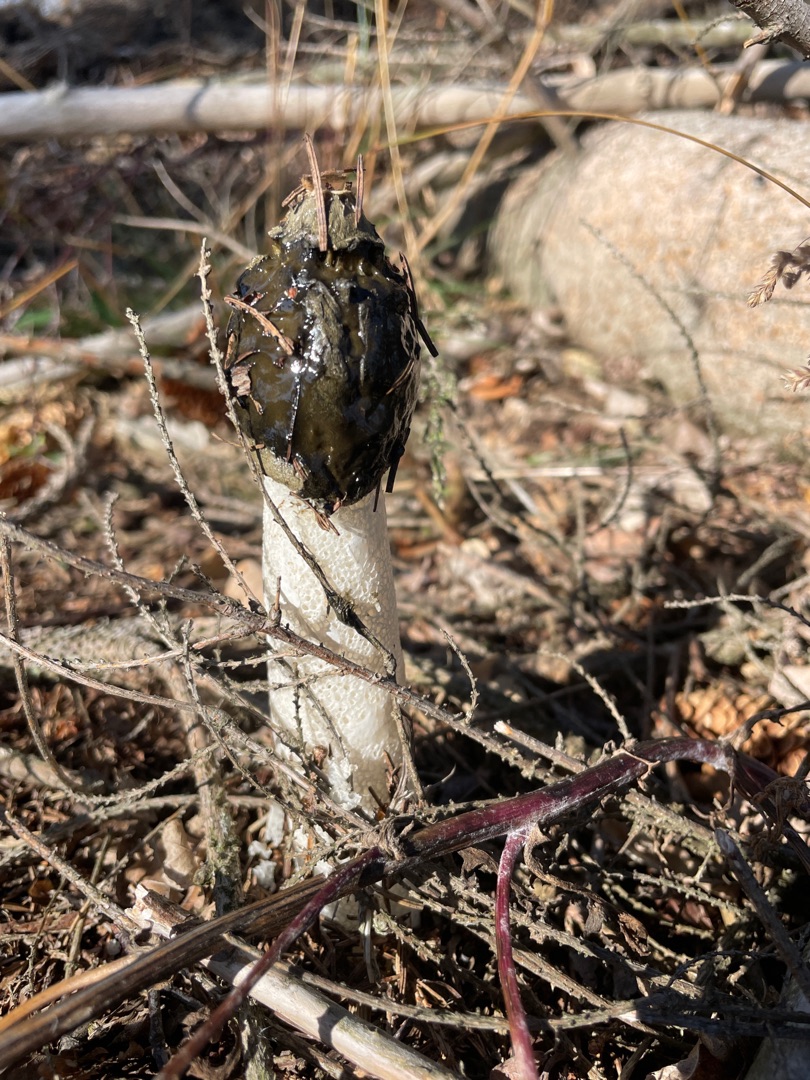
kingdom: Fungi
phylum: Basidiomycota
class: Agaricomycetes
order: Phallales
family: Phallaceae
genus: Phallus
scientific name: Phallus impudicus
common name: Almindelig stinksvamp
